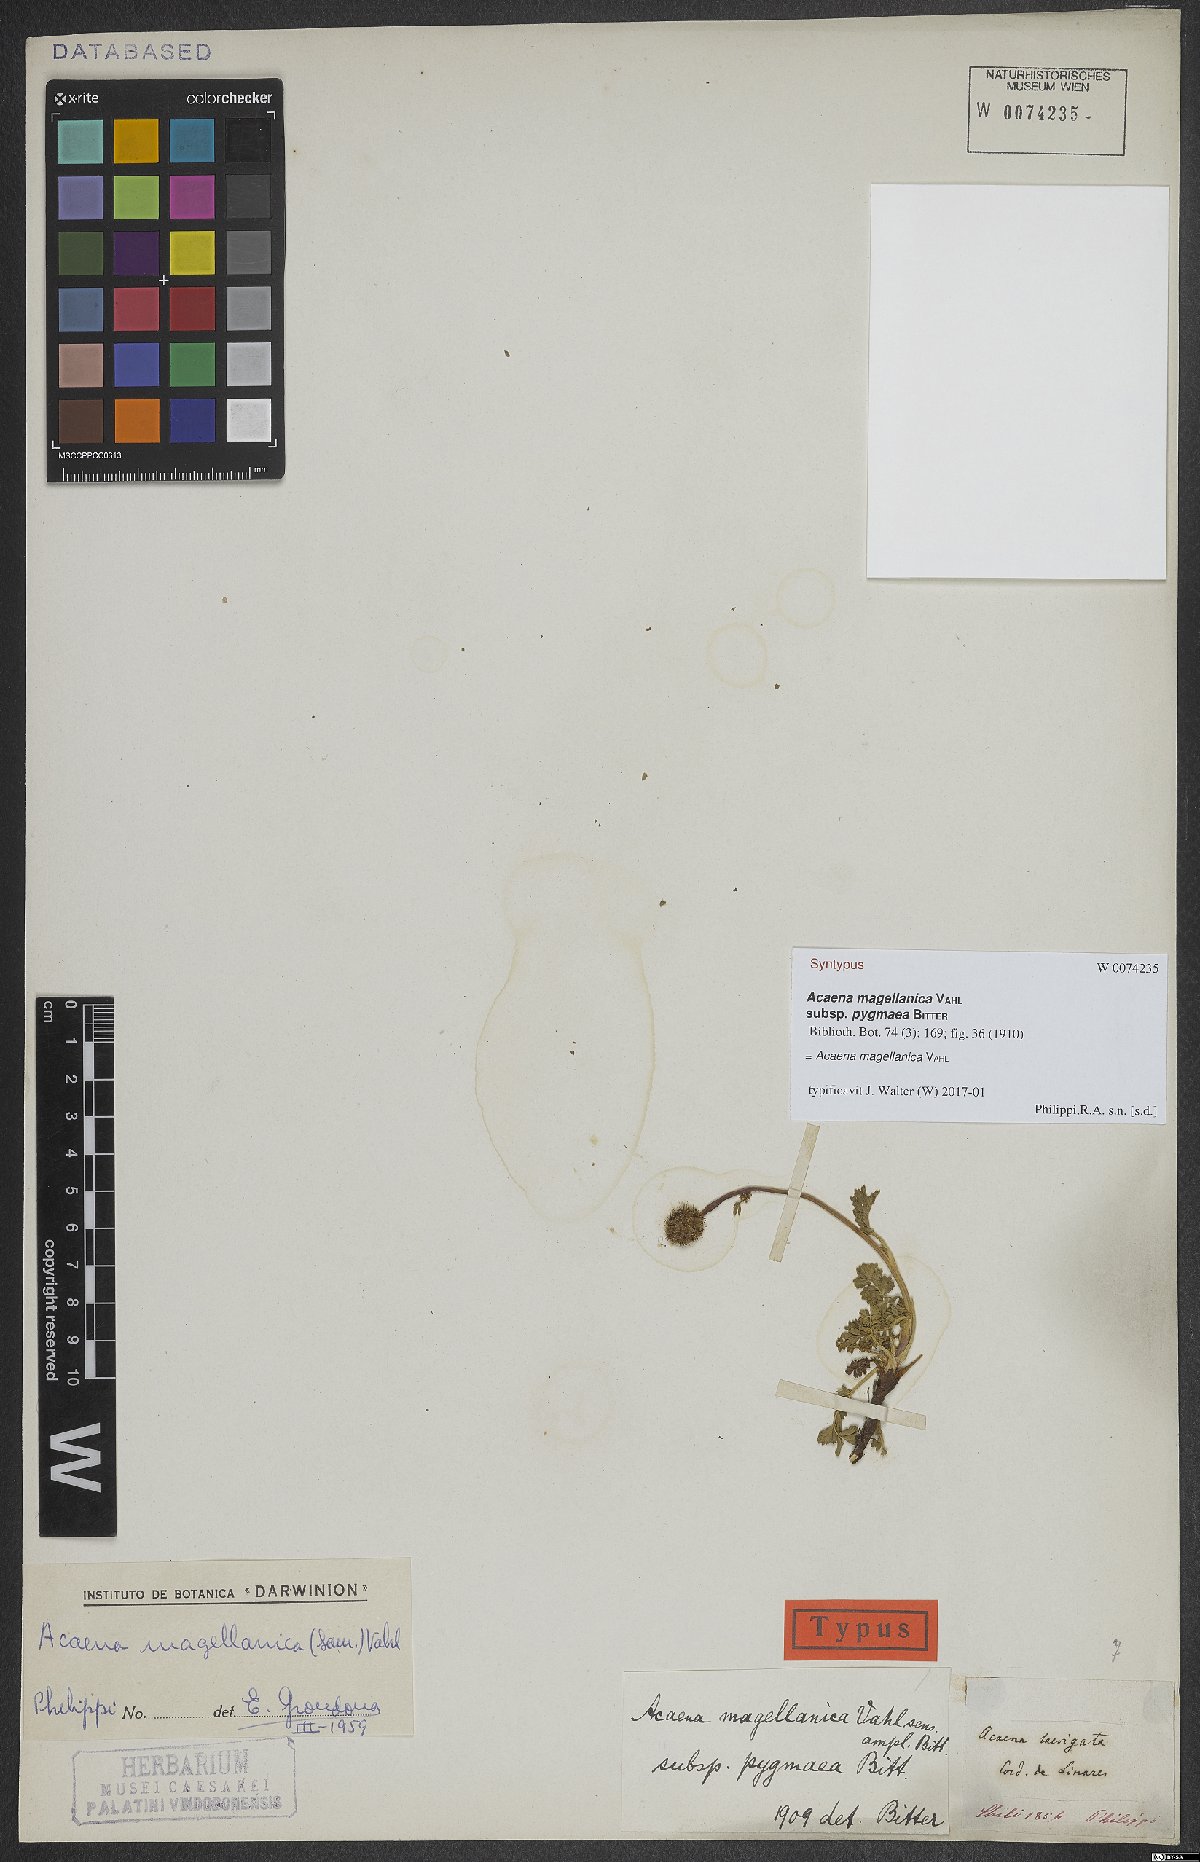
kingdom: Plantae
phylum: Tracheophyta
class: Magnoliopsida
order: Rosales
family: Rosaceae
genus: Acaena
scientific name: Acaena magellanica
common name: New zealand burr
